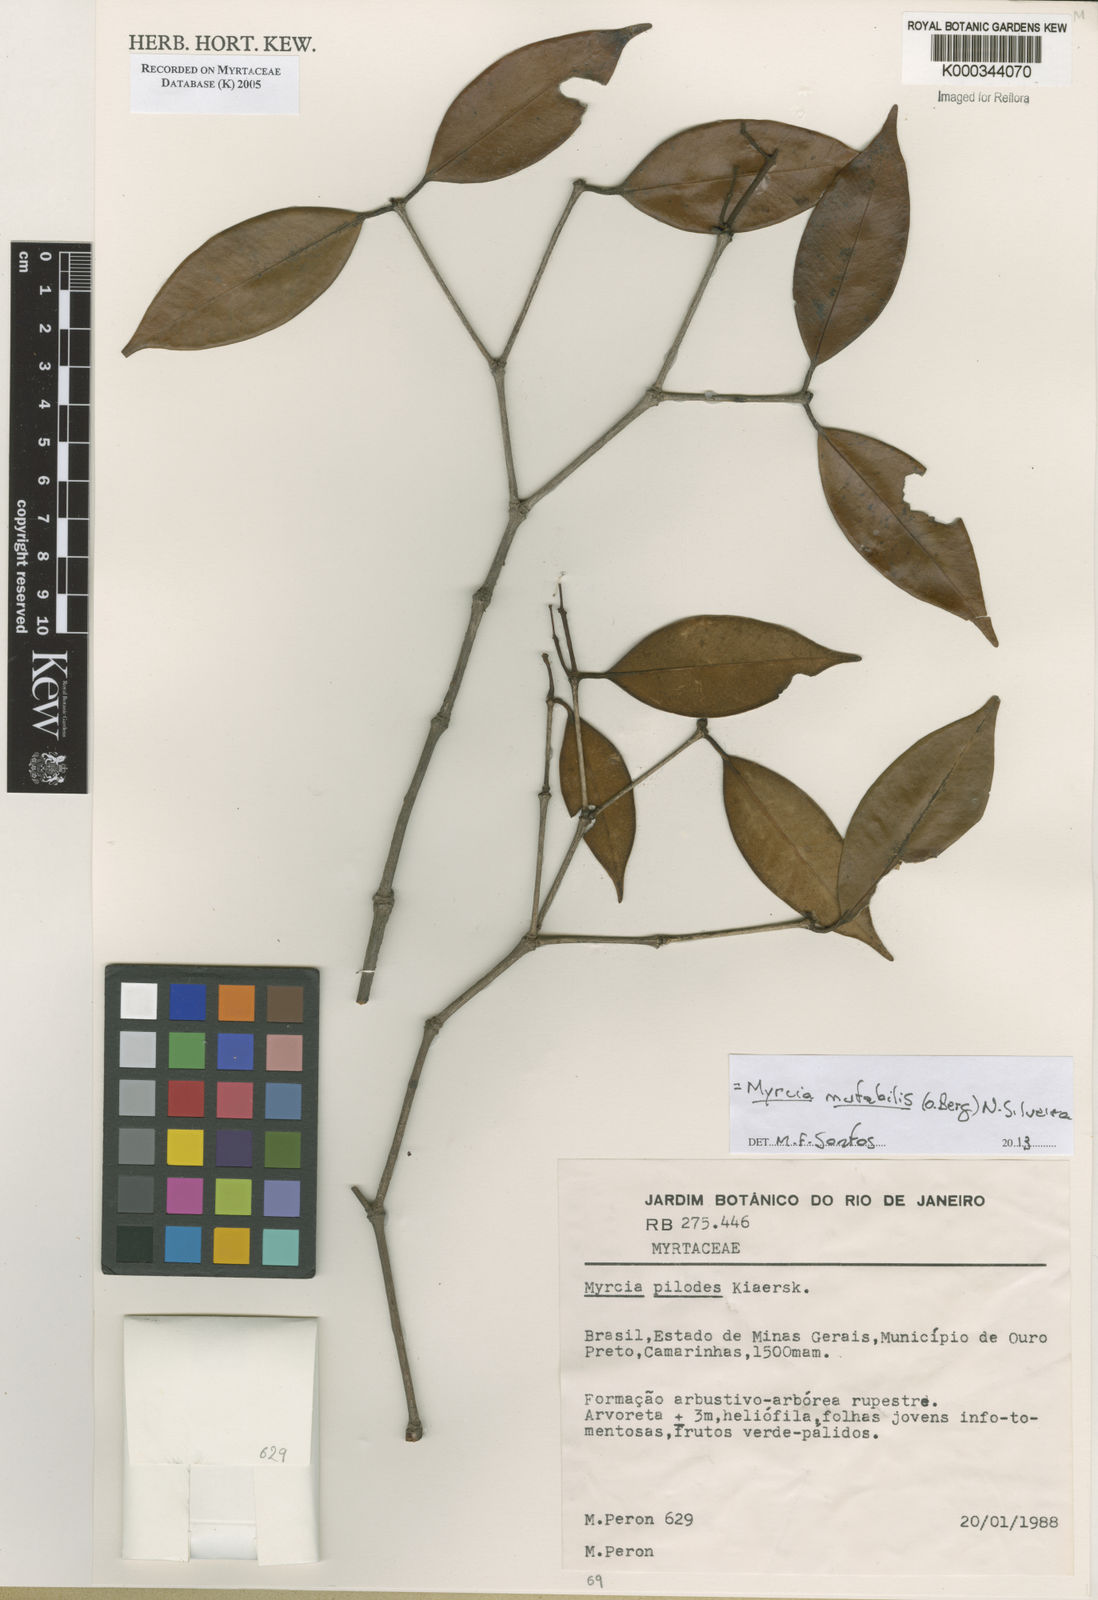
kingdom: Plantae
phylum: Tracheophyta
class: Magnoliopsida
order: Myrtales
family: Myrtaceae
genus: Myrcia
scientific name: Myrcia mutabilis
